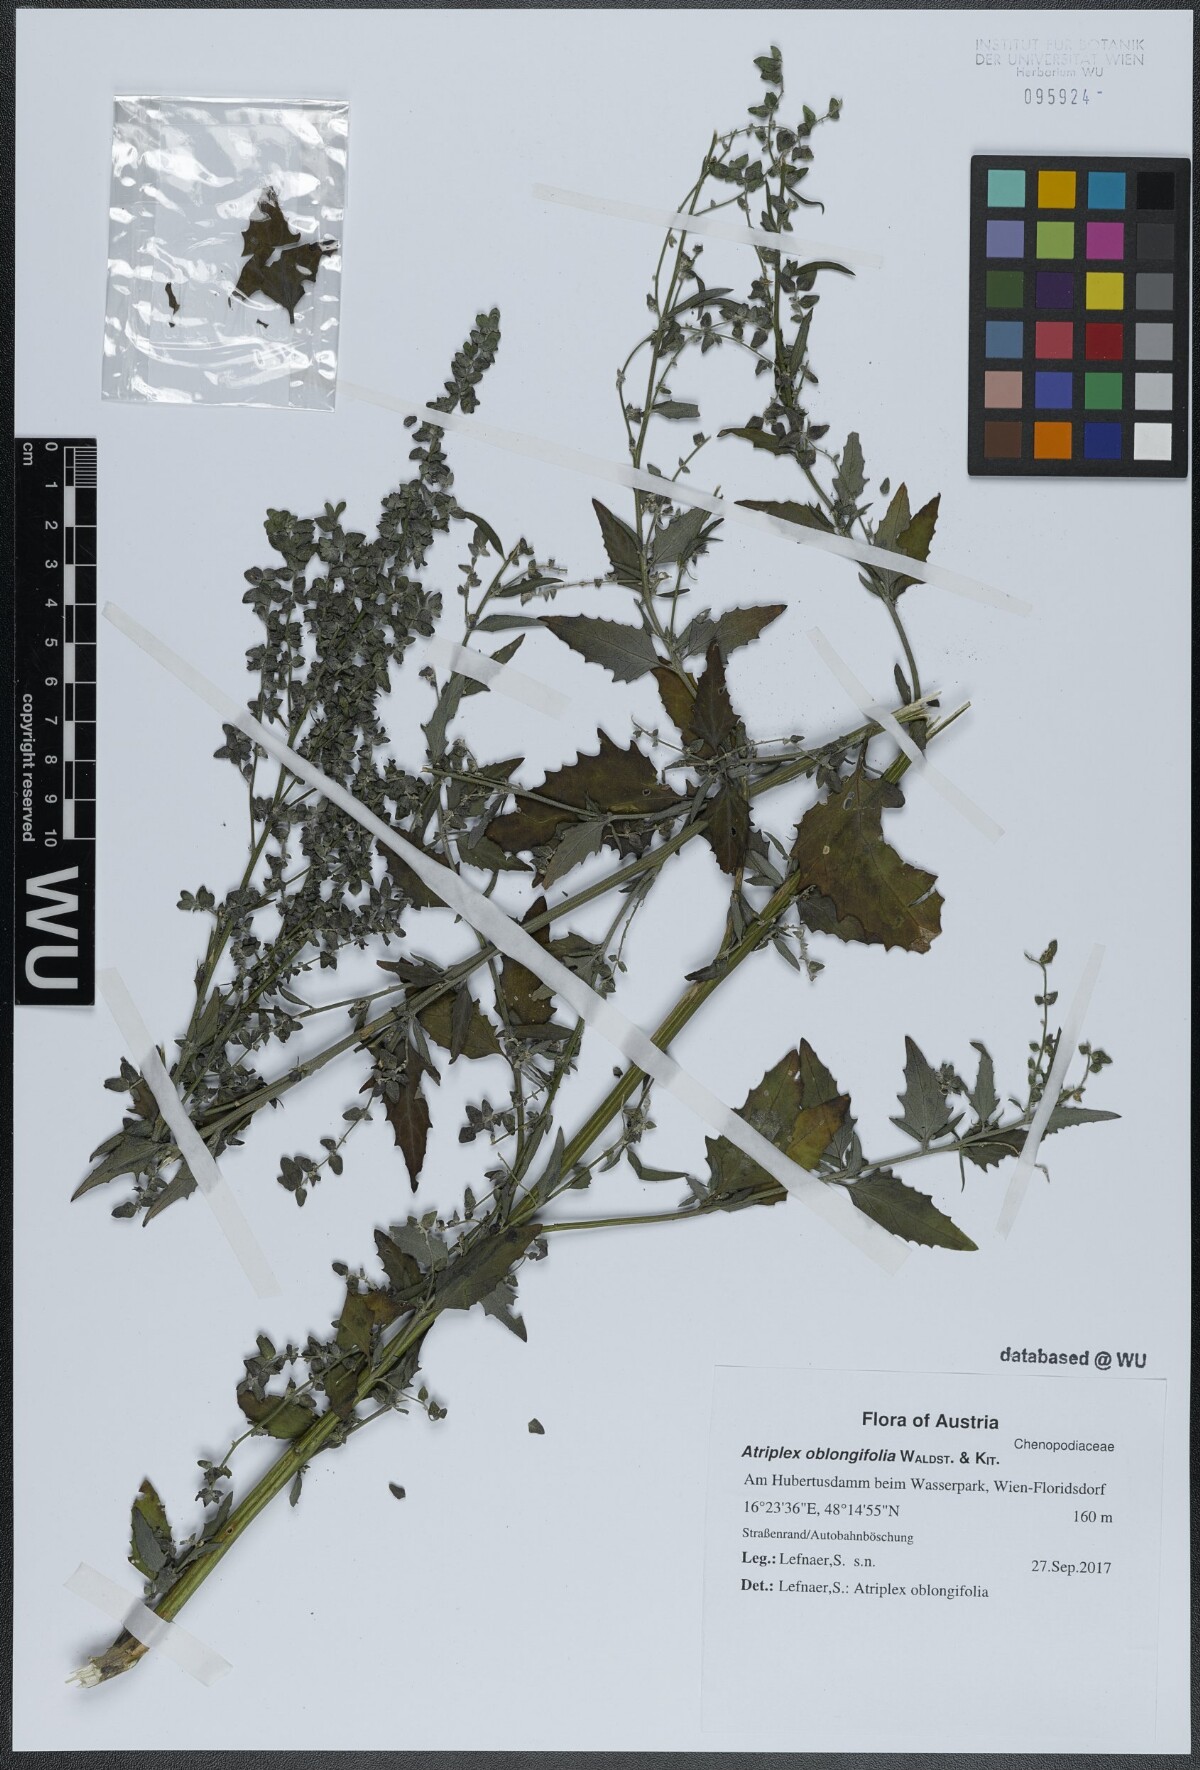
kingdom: Plantae
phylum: Tracheophyta
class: Magnoliopsida
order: Caryophyllales
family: Amaranthaceae
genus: Atriplex
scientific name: Atriplex oblongifolia
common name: Oblongleaf orache
